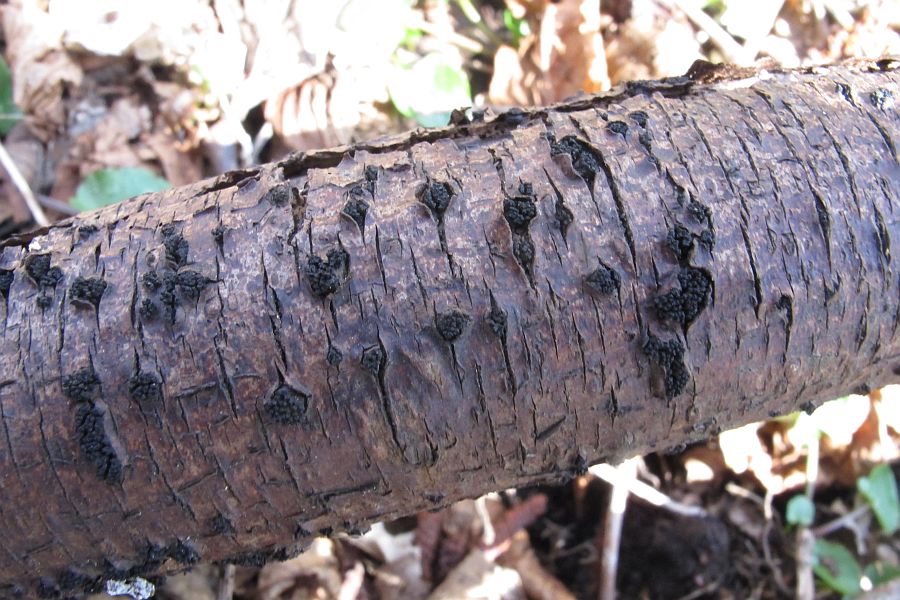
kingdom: Fungi
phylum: Ascomycota
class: Sordariomycetes
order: Xylariales
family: Diatrypaceae
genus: Eutypella
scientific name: Eutypella prunastri
